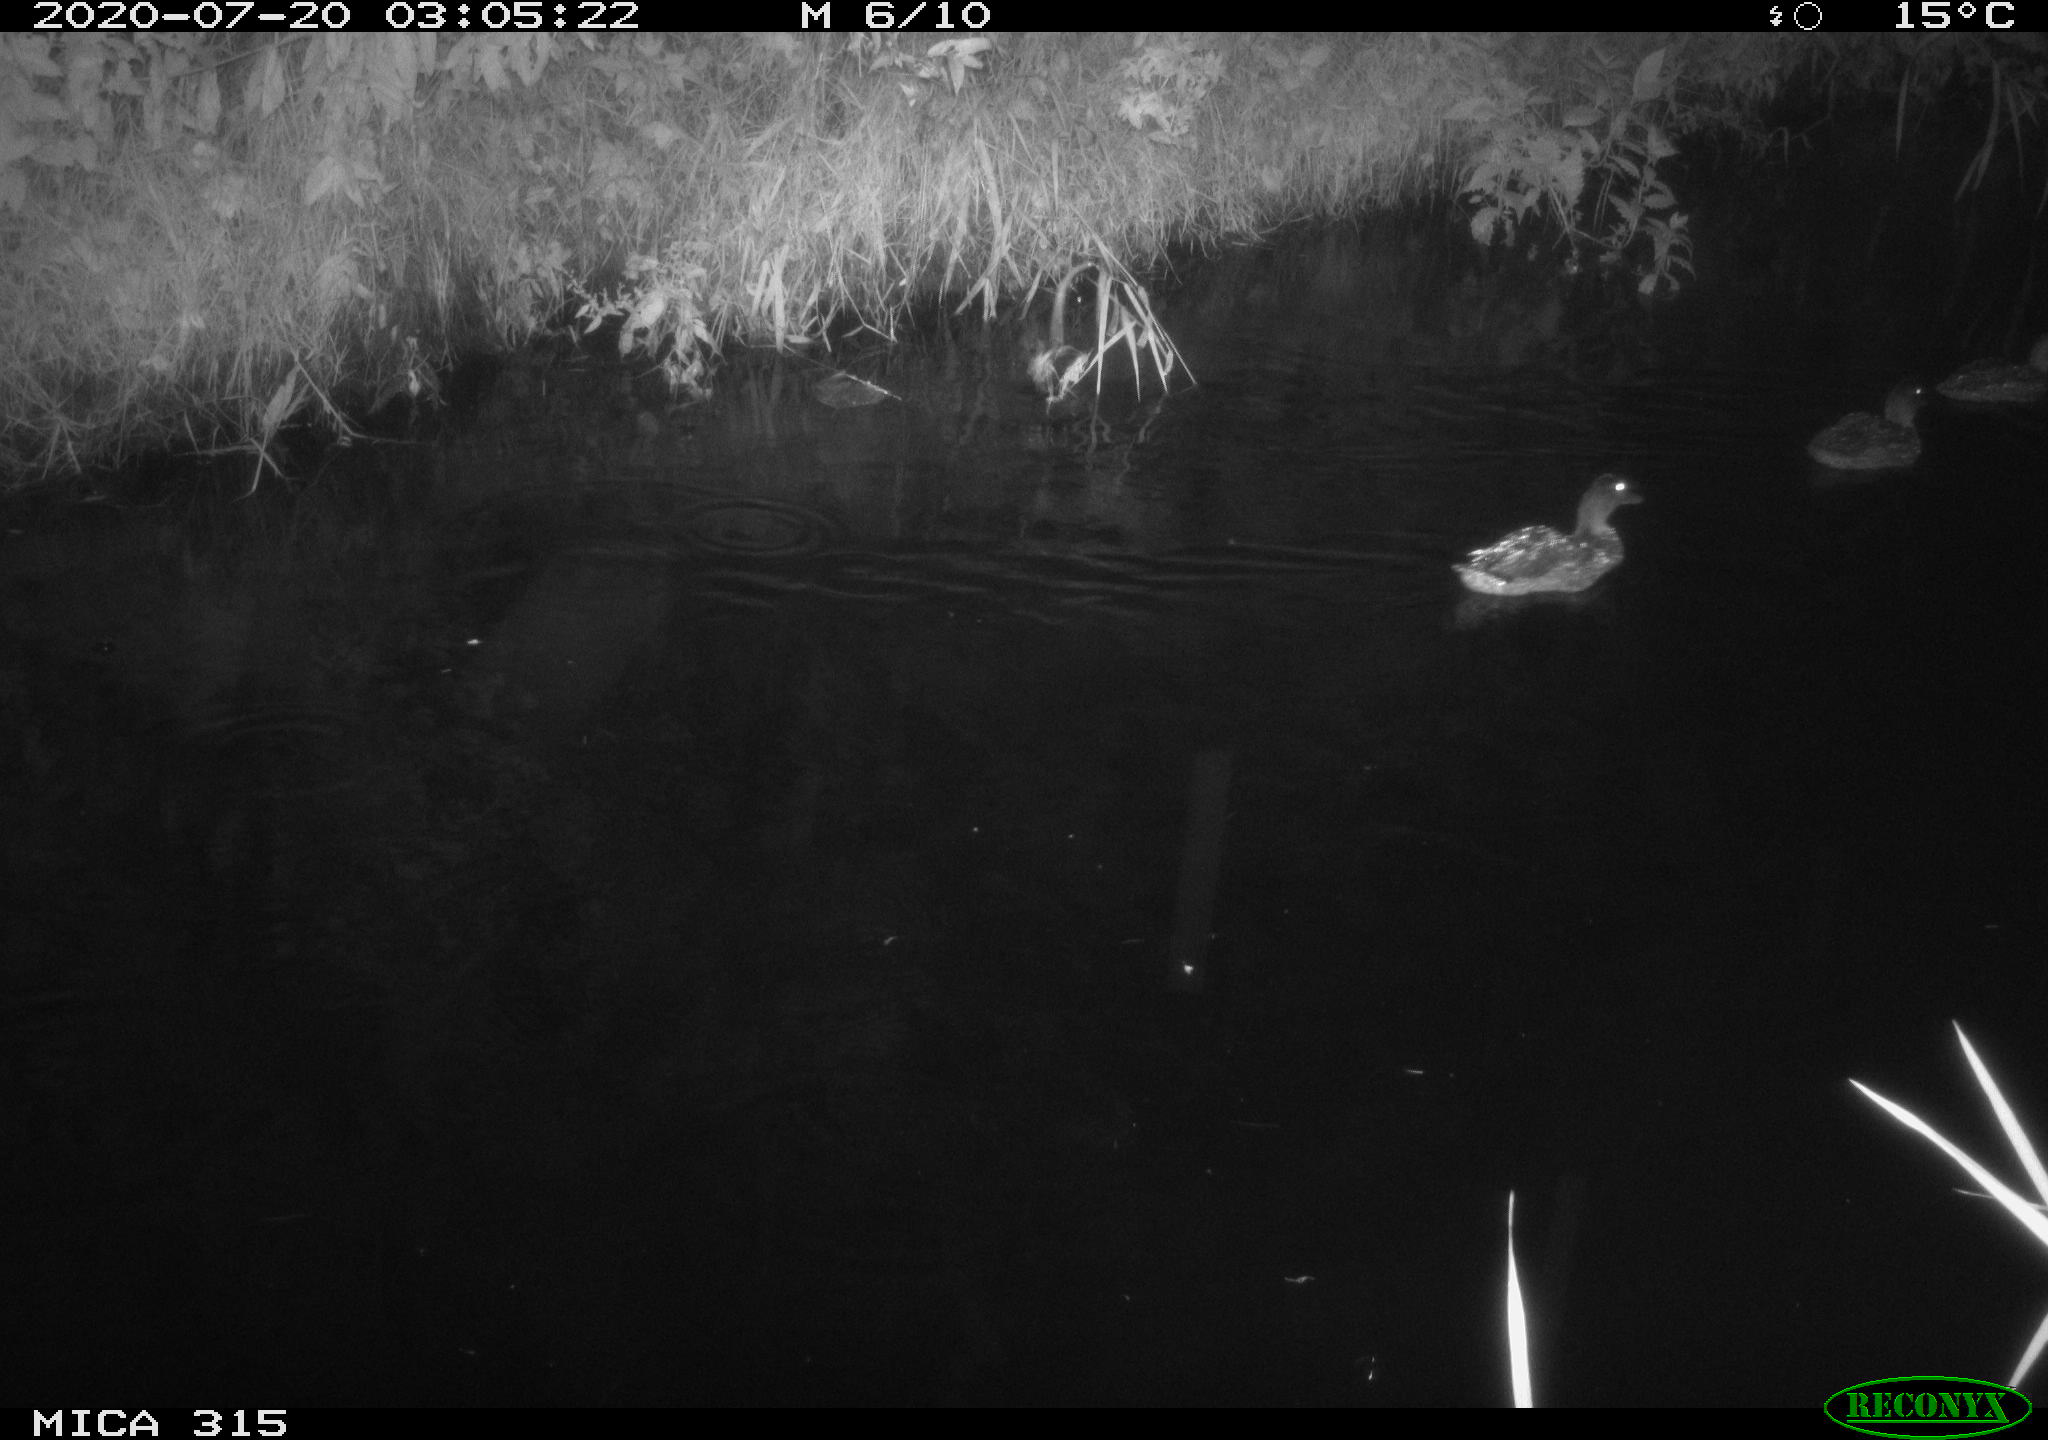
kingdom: Animalia
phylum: Chordata
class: Aves
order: Anseriformes
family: Anatidae
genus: Anas
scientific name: Anas platyrhynchos
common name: Mallard
